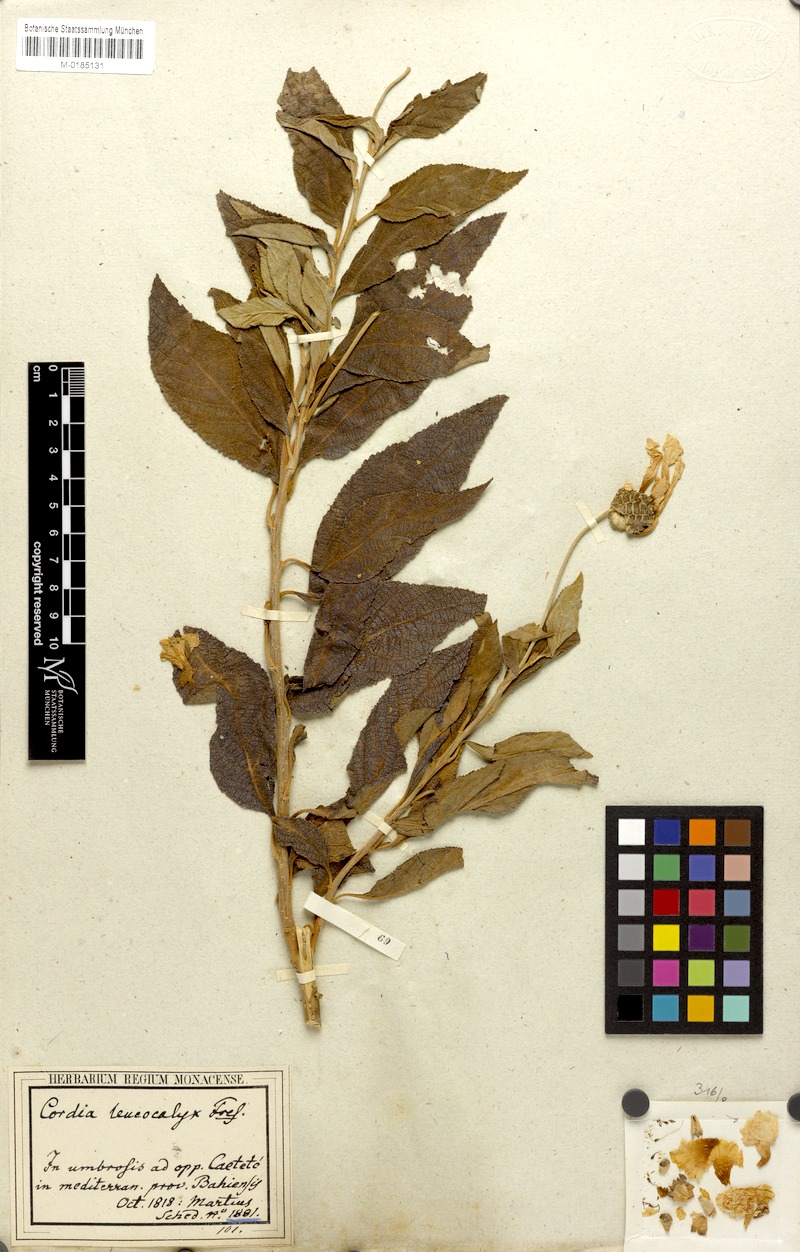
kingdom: Plantae
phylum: Tracheophyta
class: Magnoliopsida
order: Boraginales
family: Cordiaceae
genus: Varronia
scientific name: Varronia leucocephala
